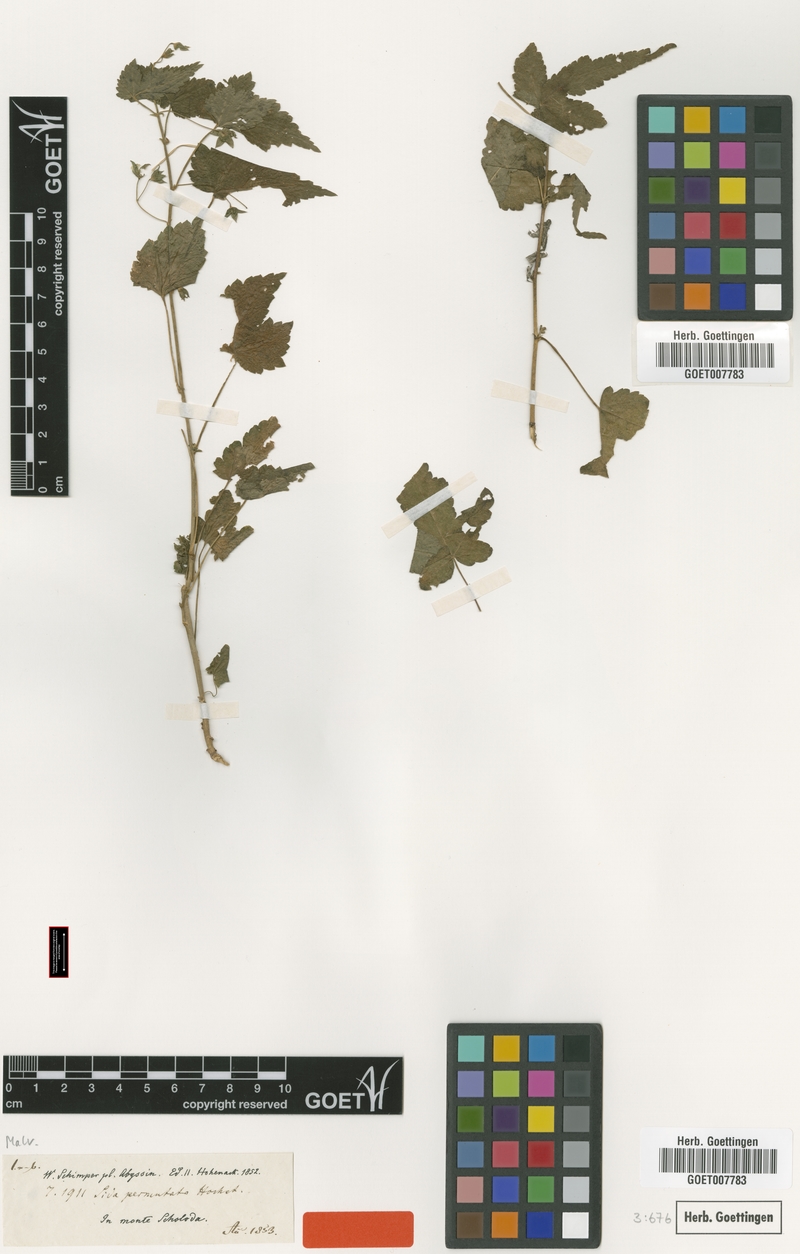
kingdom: Plantae
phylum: Tracheophyta
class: Magnoliopsida
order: Malvales
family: Malvaceae
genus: Sida
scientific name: Sida ternata
